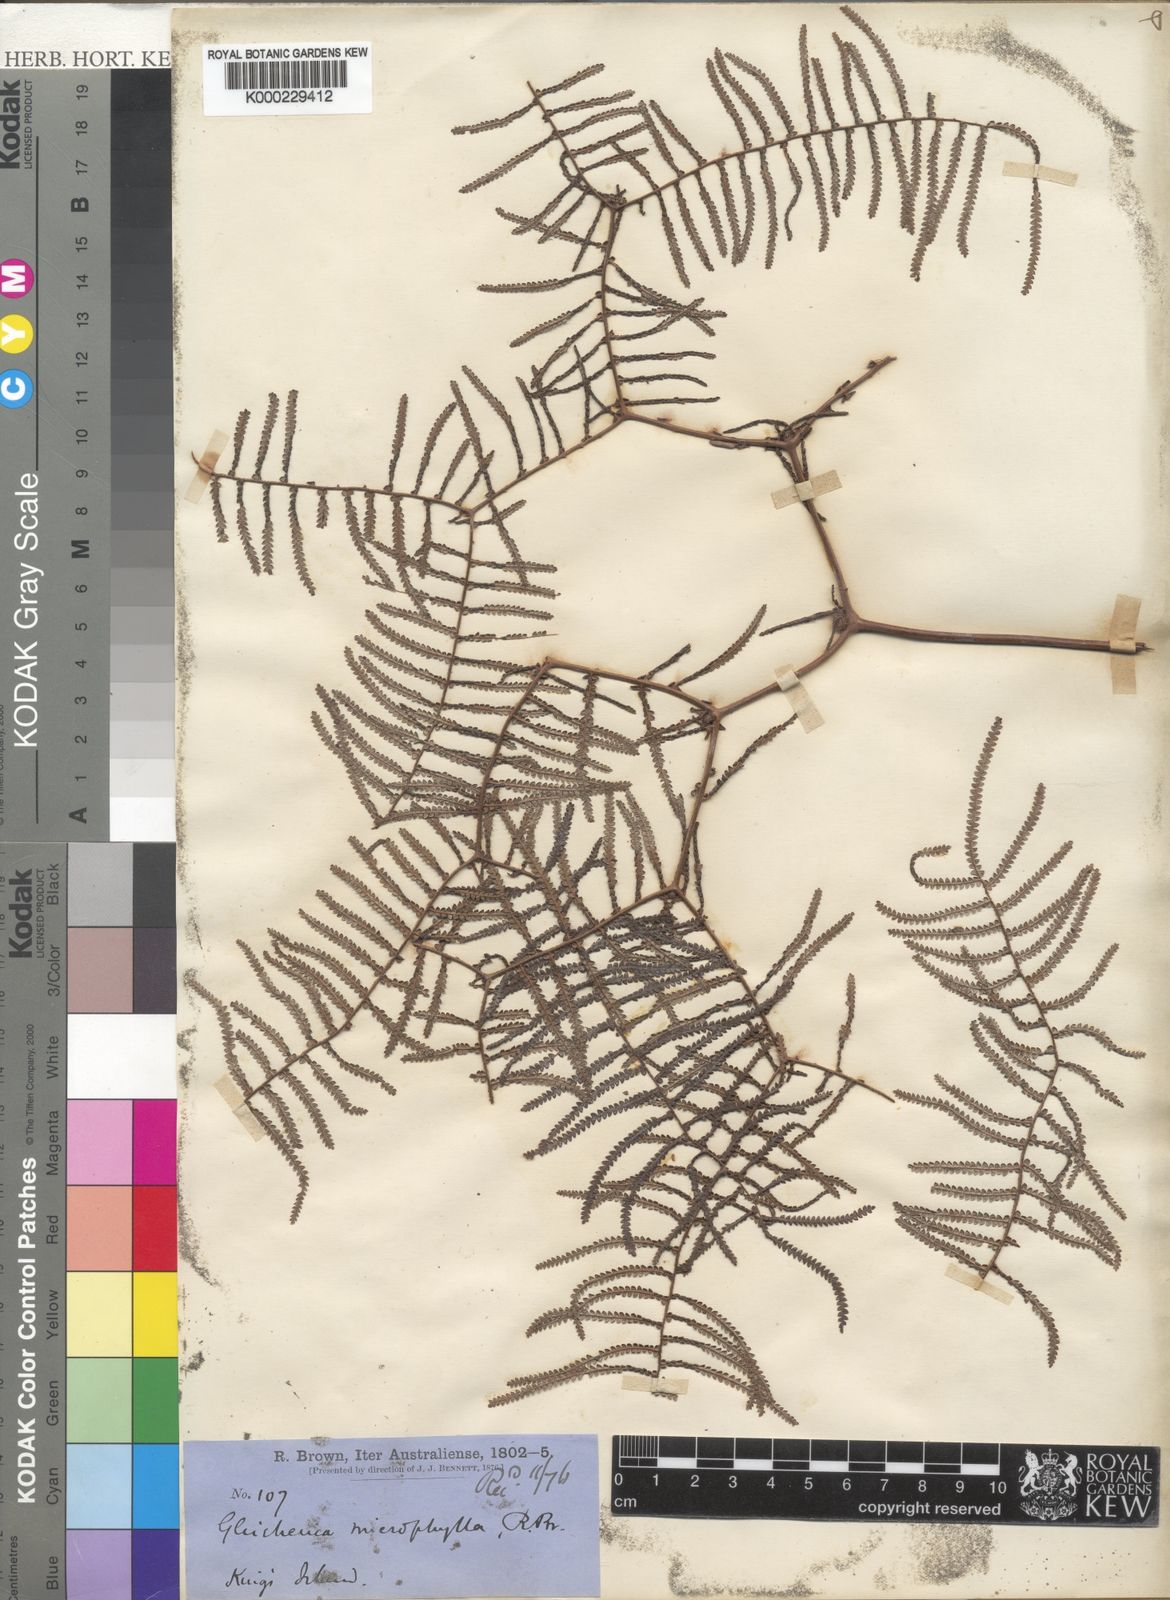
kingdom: Plantae
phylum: Tracheophyta
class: Polypodiopsida
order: Gleicheniales
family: Gleicheniaceae
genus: Gleichenia
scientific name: Gleichenia microphylla
